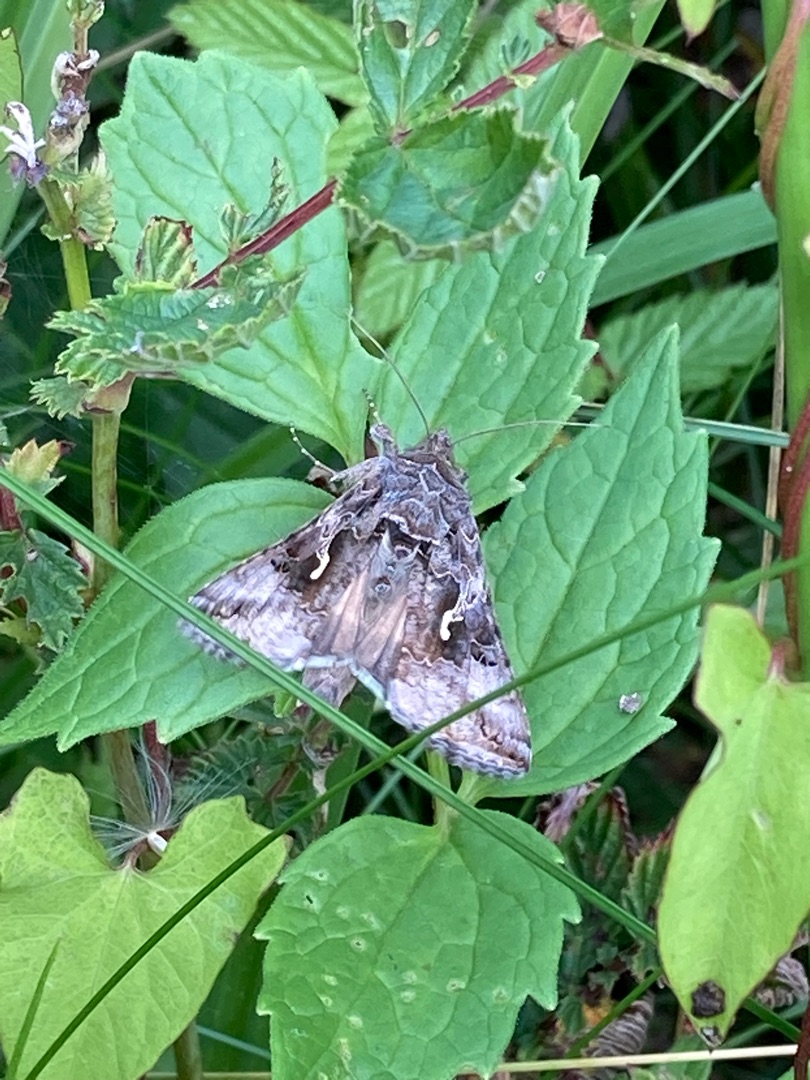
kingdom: Animalia
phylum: Arthropoda
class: Insecta
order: Lepidoptera
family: Noctuidae
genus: Autographa
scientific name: Autographa gamma
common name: Gammaugle
